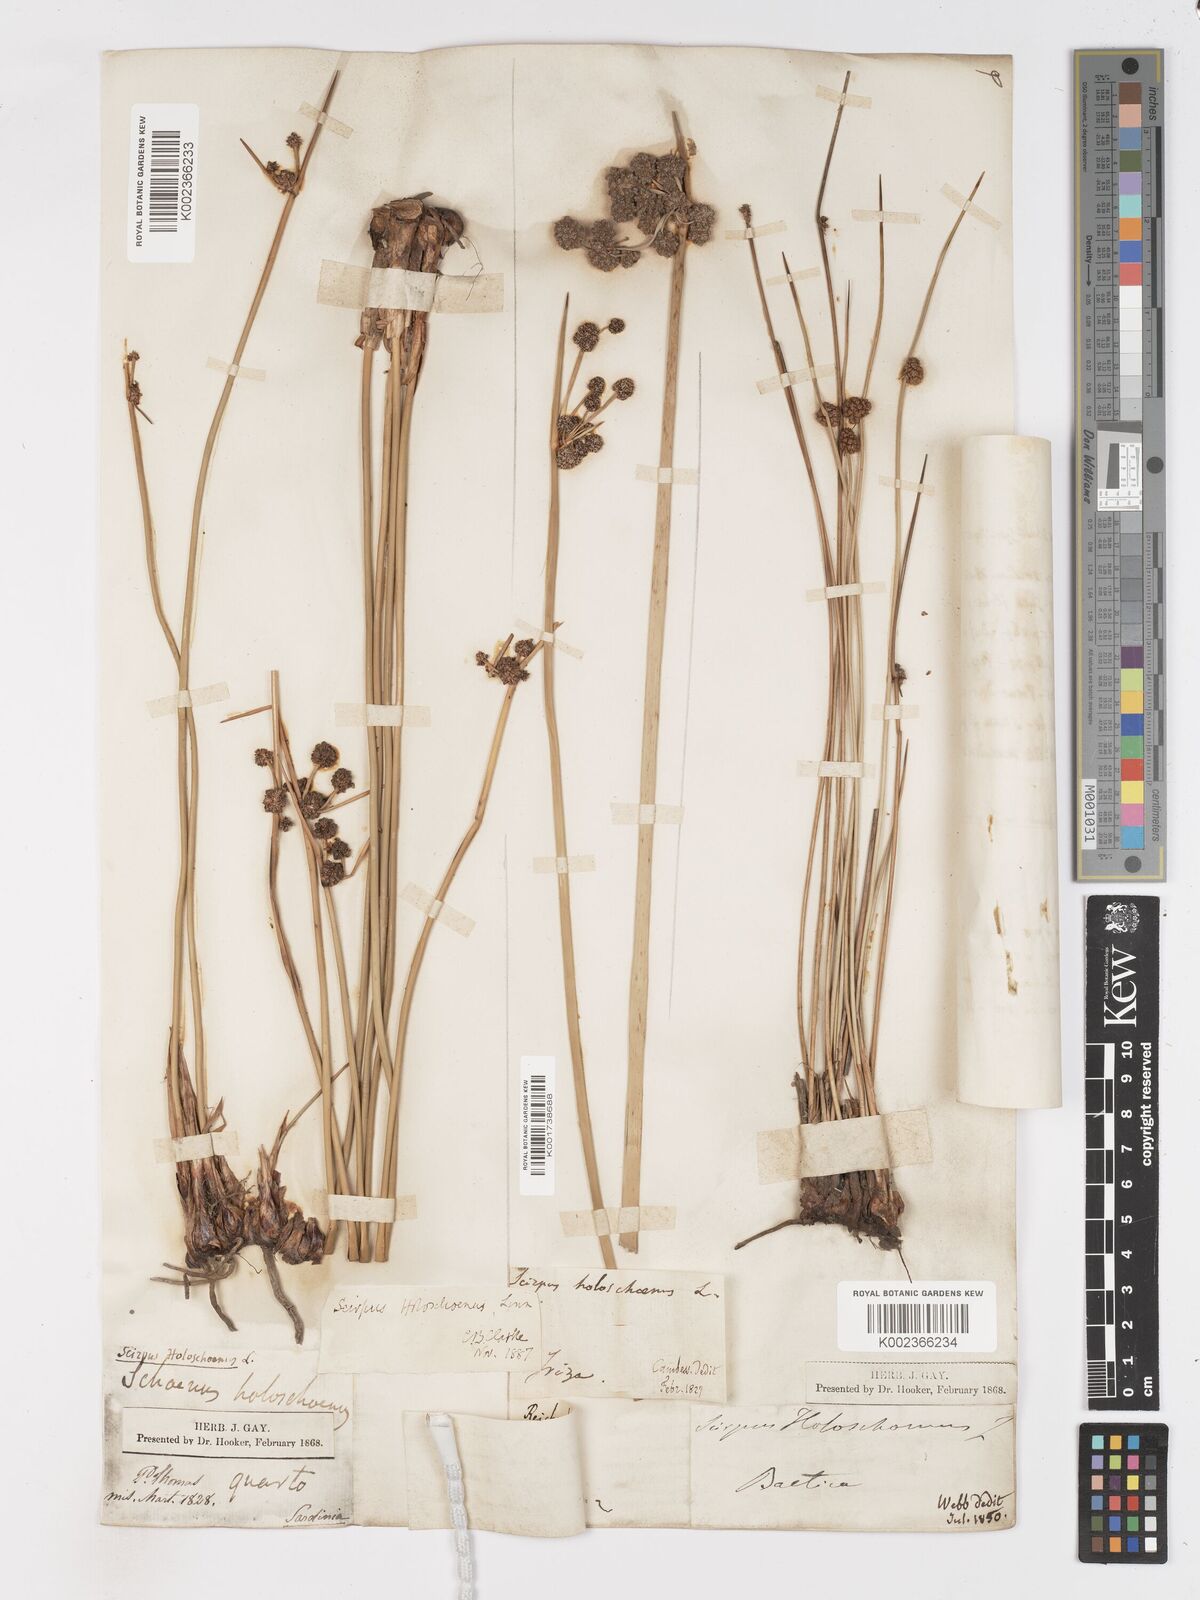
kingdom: Plantae
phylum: Tracheophyta
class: Liliopsida
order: Poales
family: Cyperaceae
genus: Scirpoides
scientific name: Scirpoides holoschoenus
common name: Round-headed club-rush
